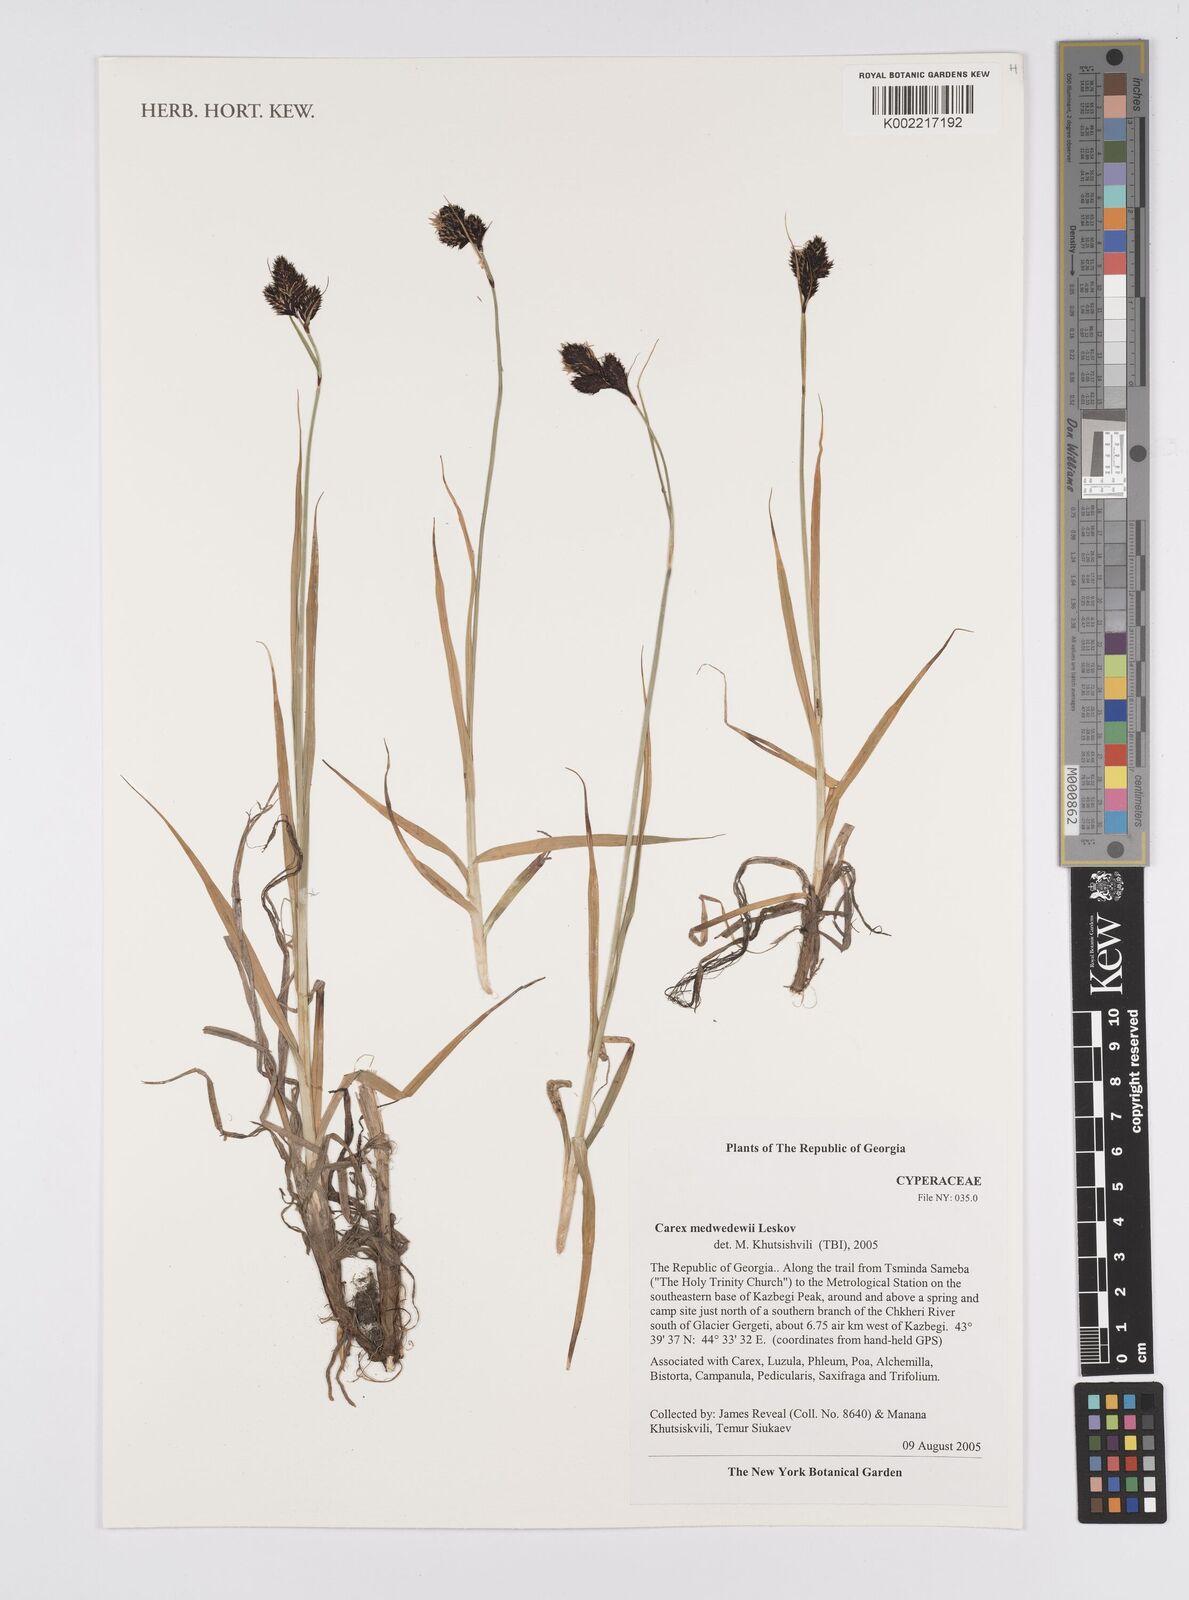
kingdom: Plantae
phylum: Tracheophyta
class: Liliopsida
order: Poales
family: Cyperaceae
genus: Carex
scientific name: Carex aterrima
